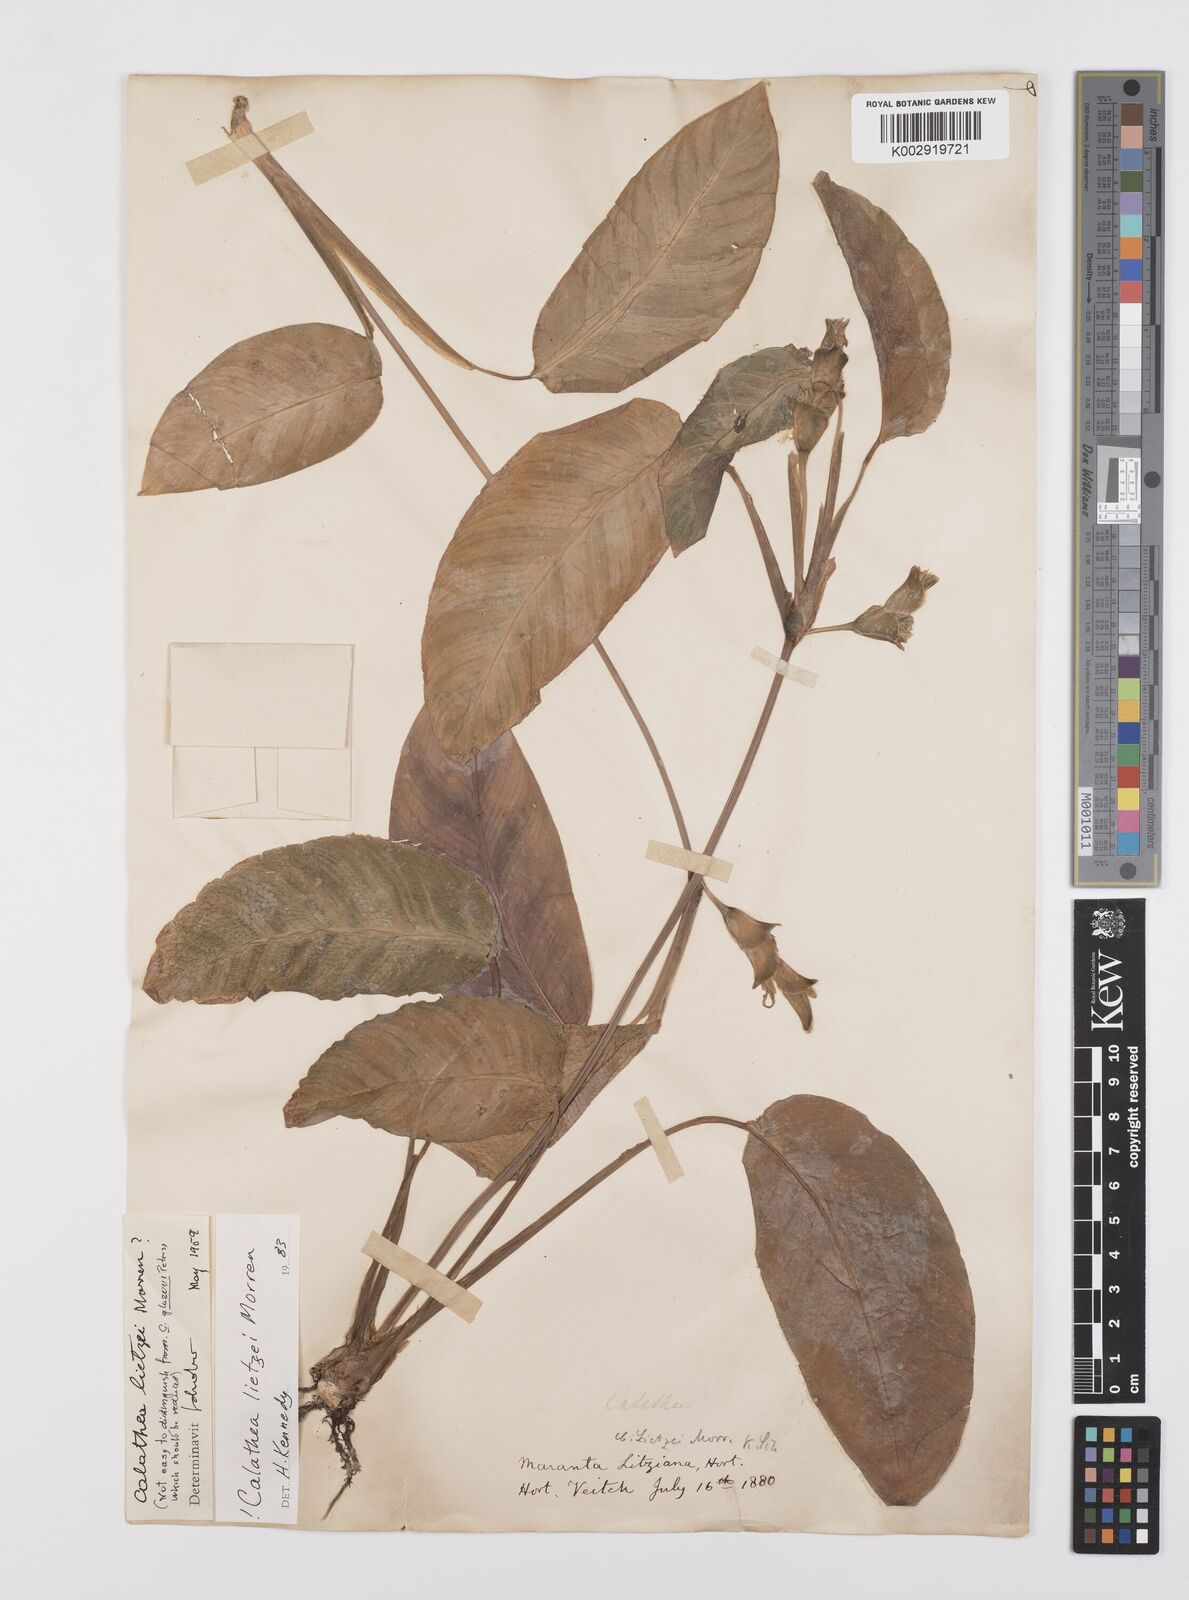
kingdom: Plantae
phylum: Tracheophyta
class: Liliopsida
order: Zingiberales
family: Marantaceae
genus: Goeppertia
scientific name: Goeppertia lietzei
